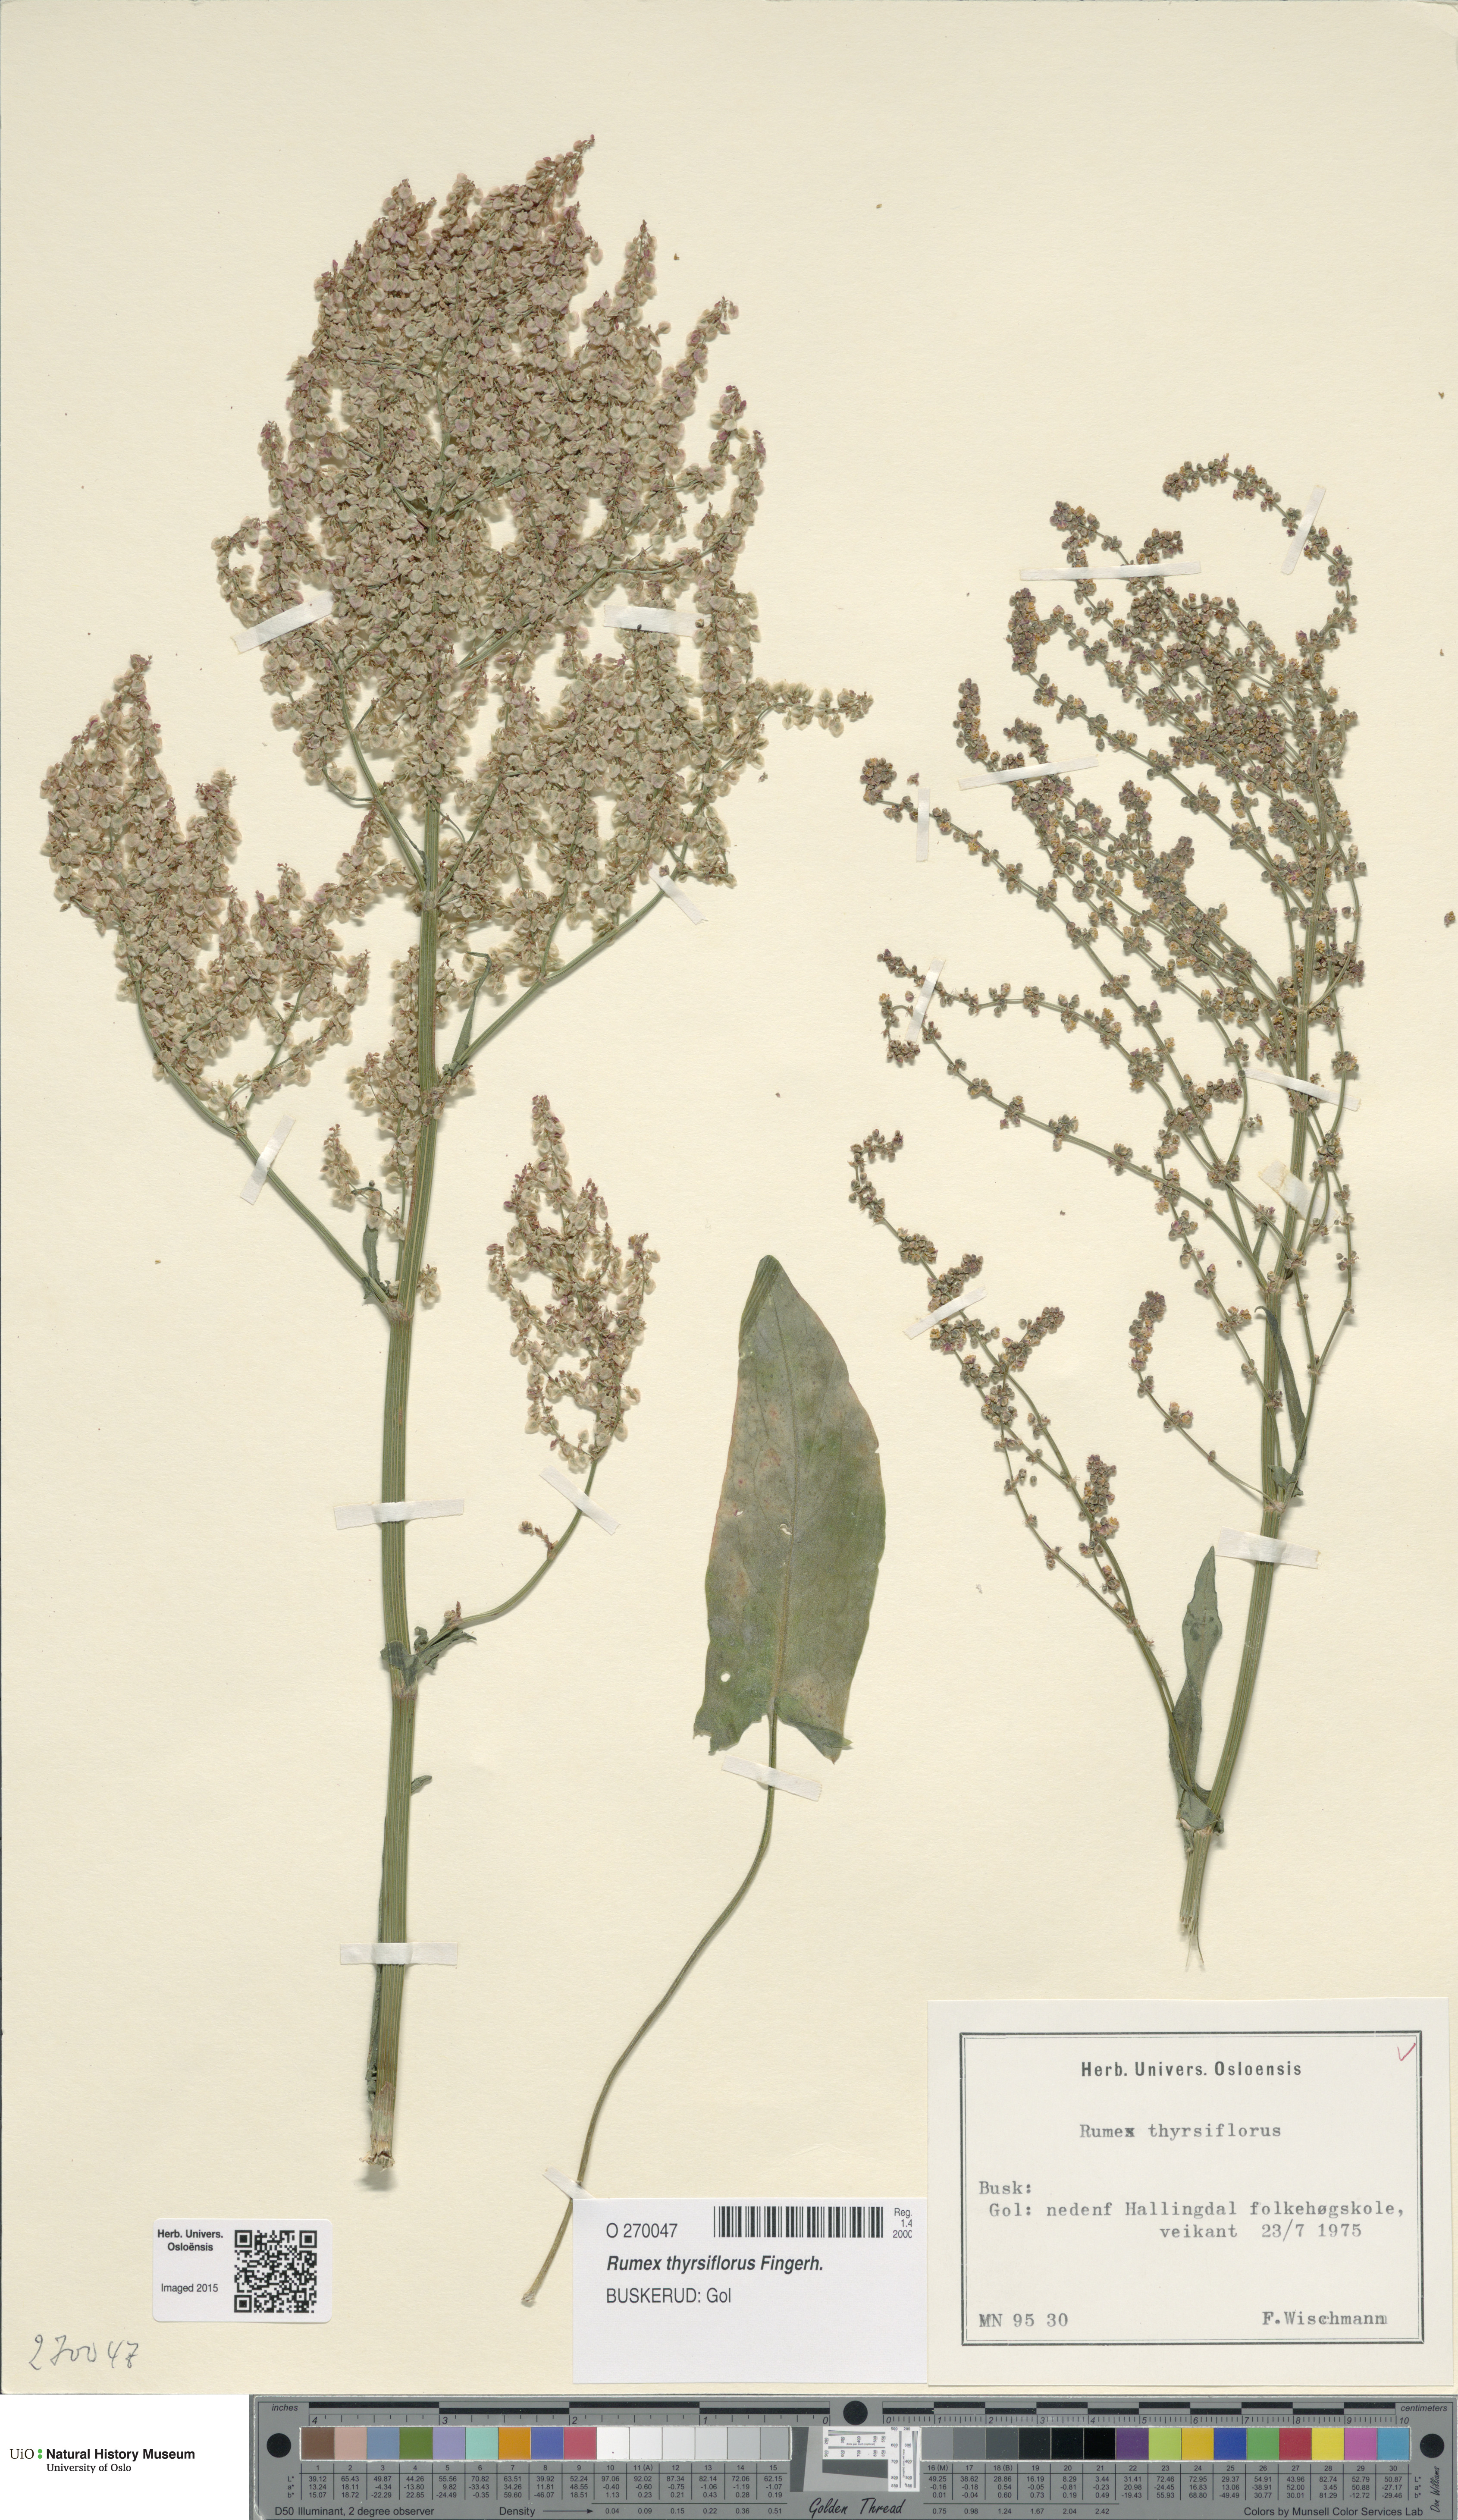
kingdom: Plantae
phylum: Tracheophyta
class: Magnoliopsida
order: Caryophyllales
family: Polygonaceae
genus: Rumex
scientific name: Rumex thyrsiflorus
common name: Garden sorrel
